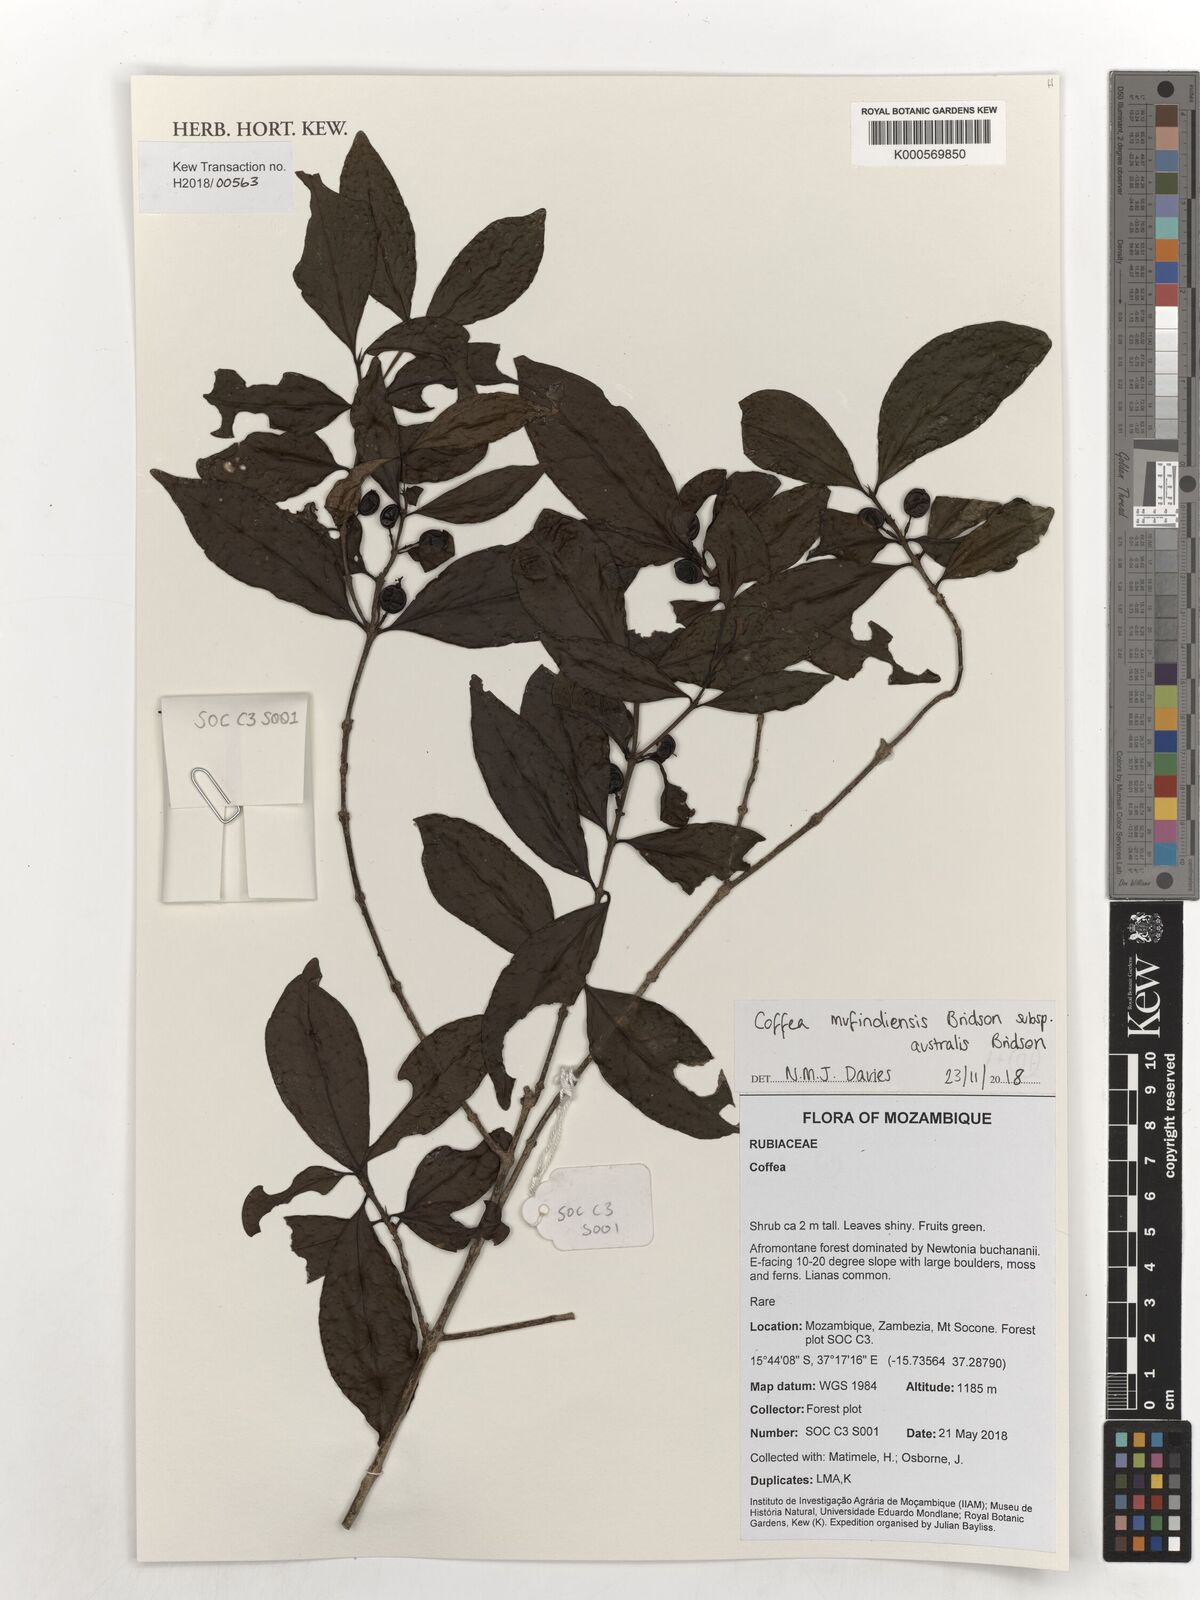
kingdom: Plantae
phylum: Tracheophyta
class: Magnoliopsida
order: Gentianales
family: Rubiaceae
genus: Coffea
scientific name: Coffea mufindiensis
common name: Wild coffee
